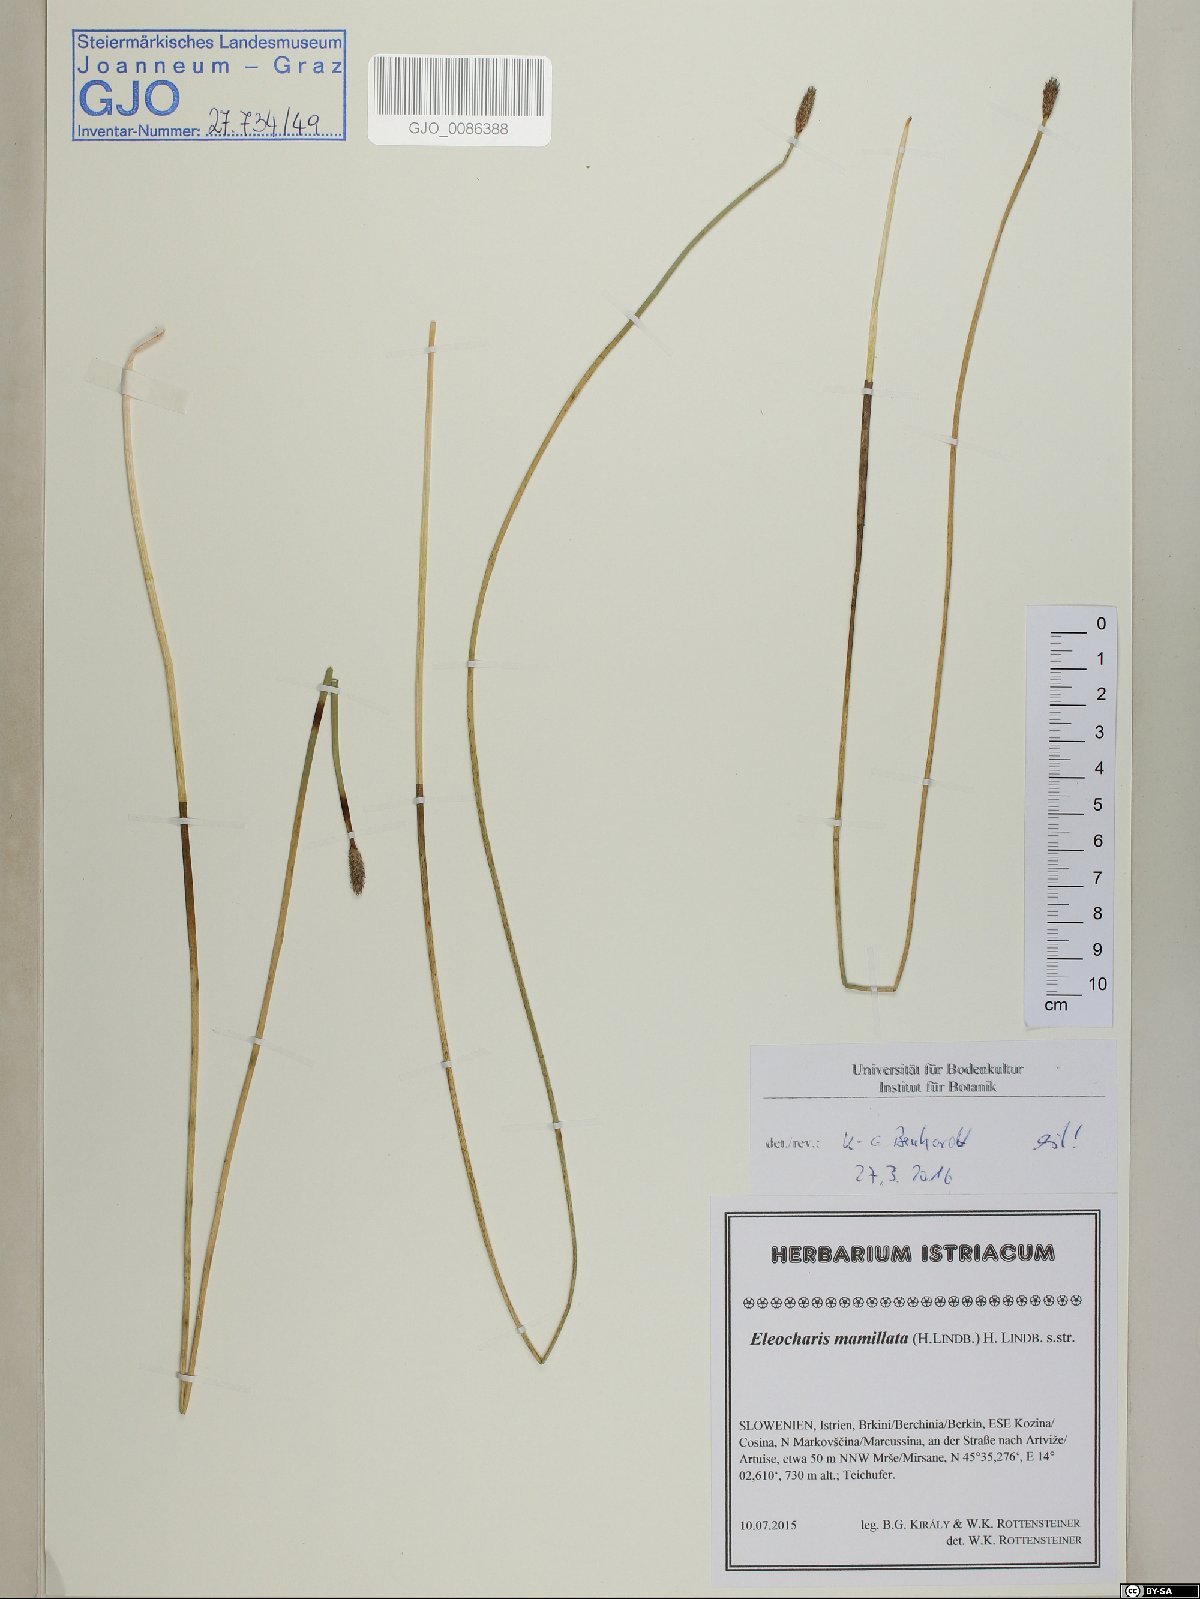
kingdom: Plantae
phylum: Tracheophyta
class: Liliopsida
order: Poales
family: Cyperaceae
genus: Eleocharis
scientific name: Eleocharis mamillata
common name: Northern spike-rush
